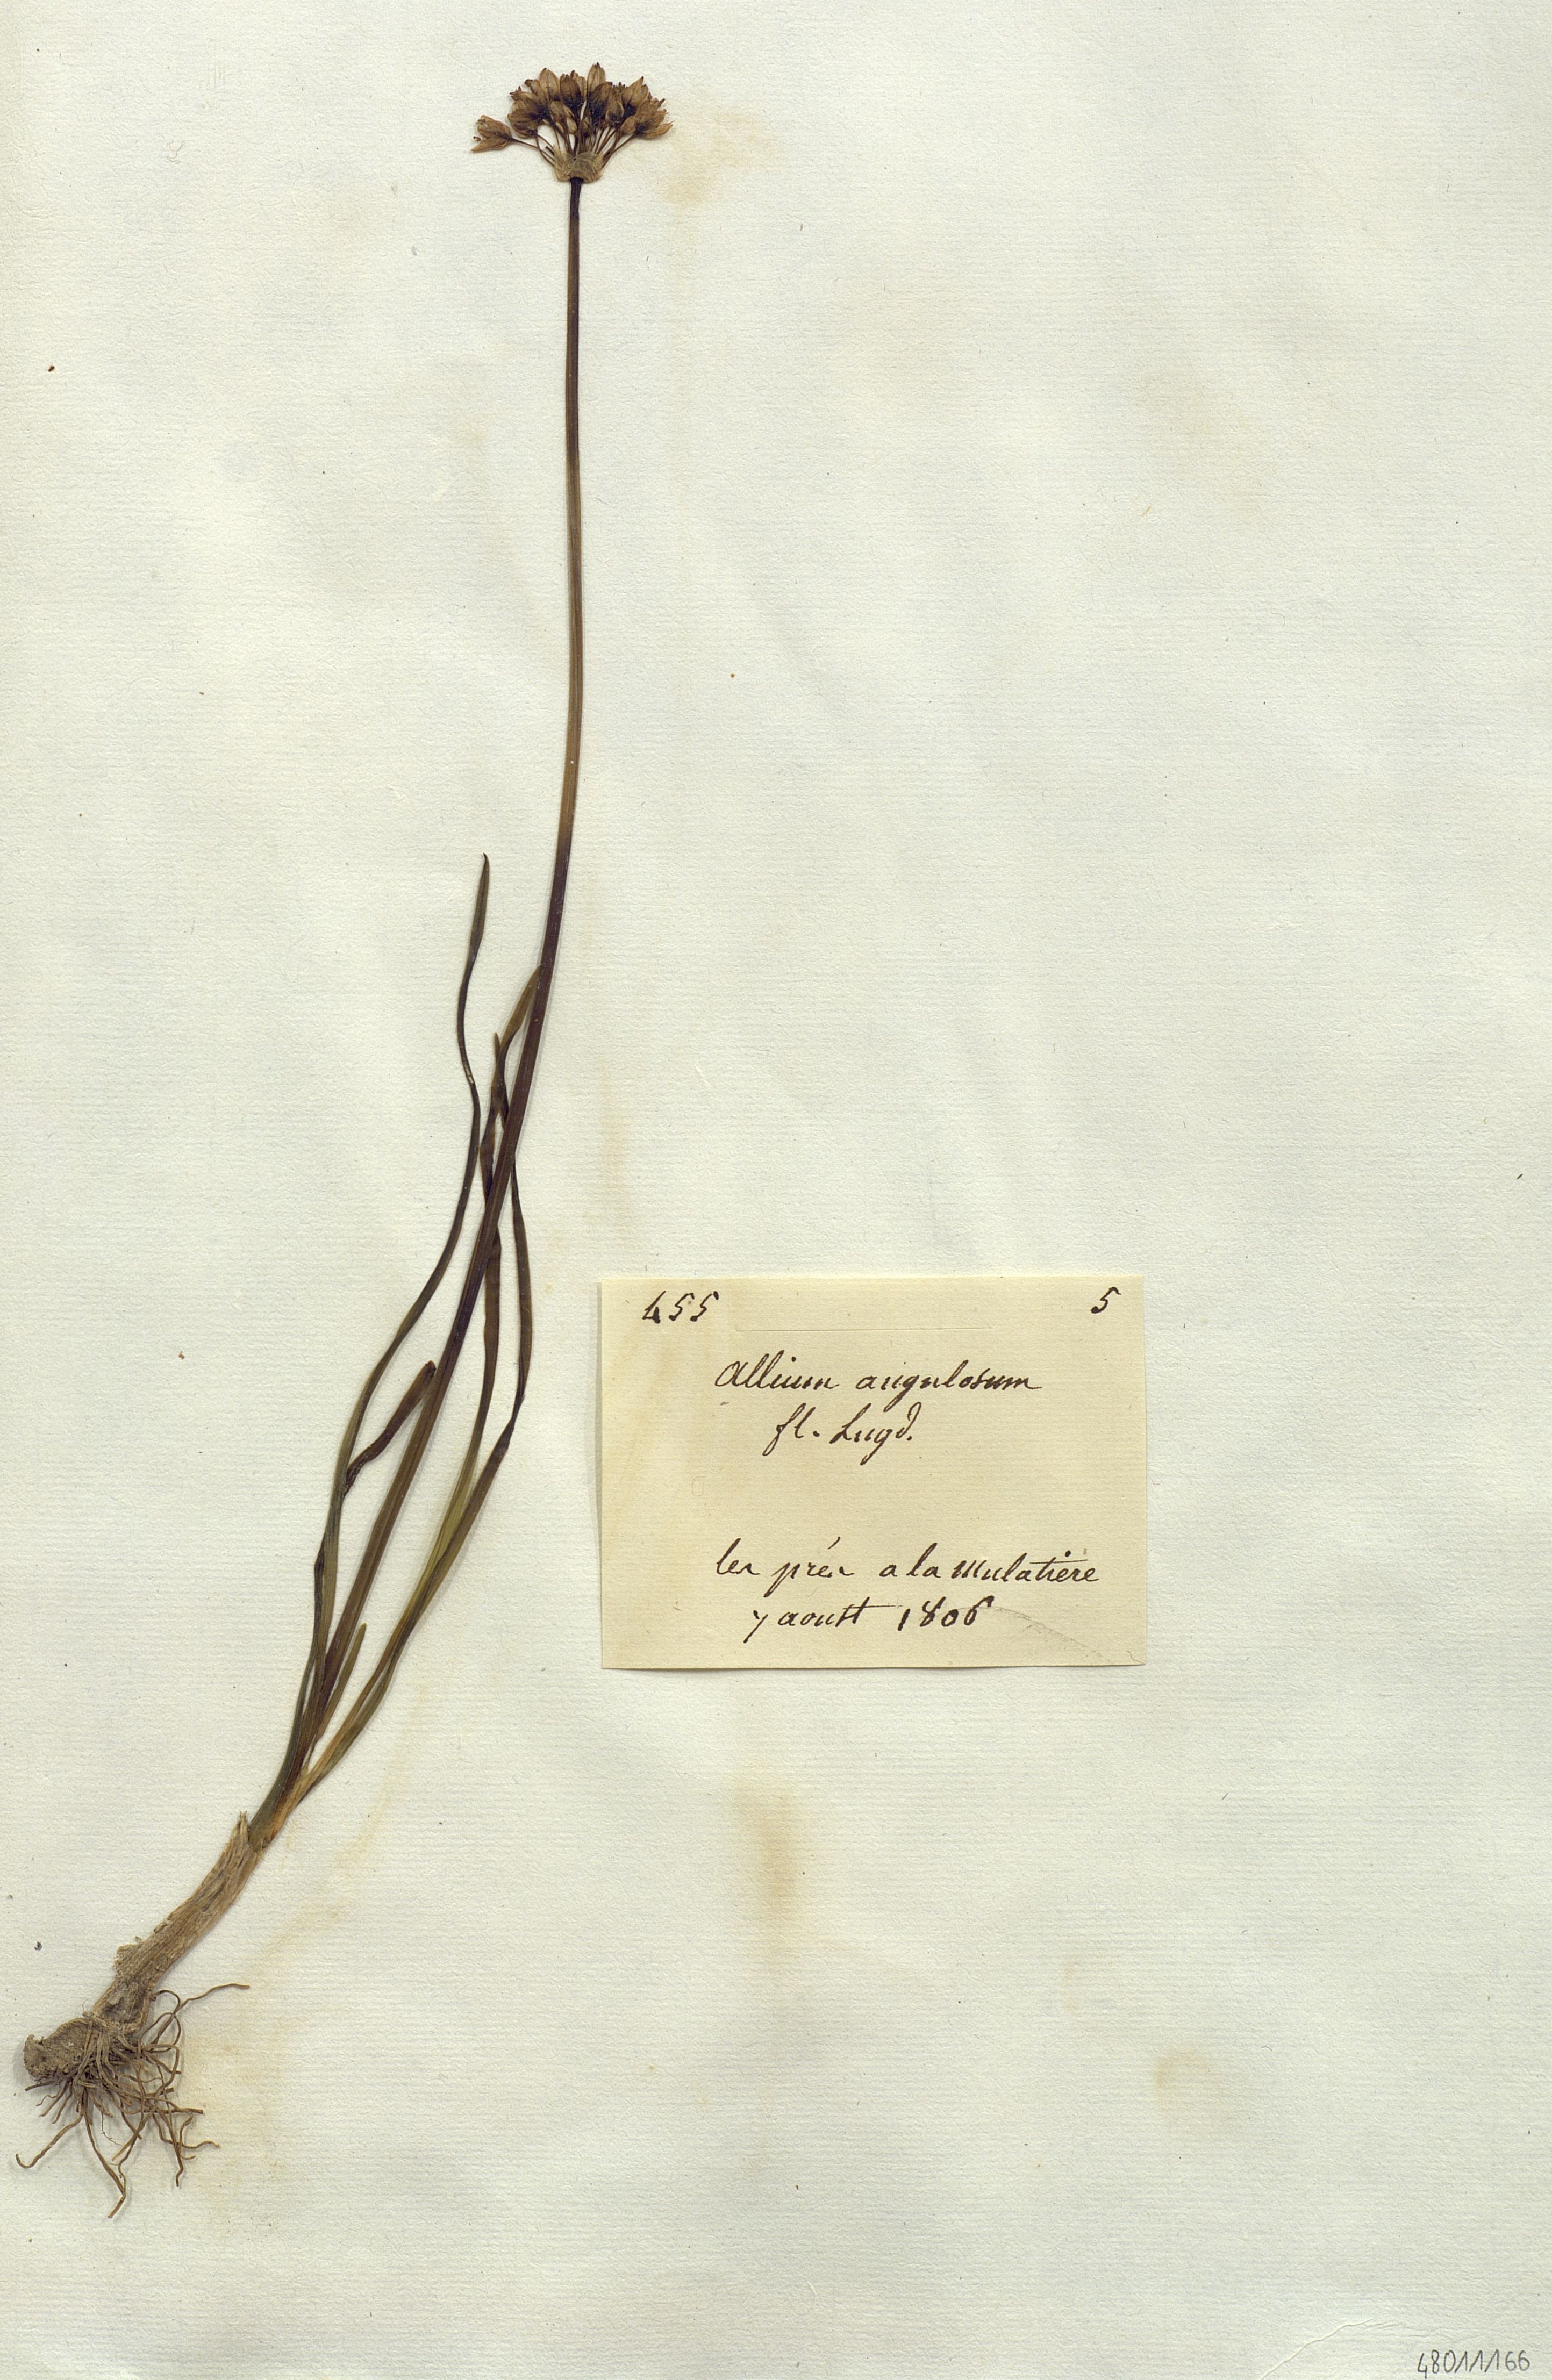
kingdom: Plantae
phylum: Tracheophyta
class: Liliopsida
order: Liliales
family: Liliaceae
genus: Allium
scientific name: Allium
